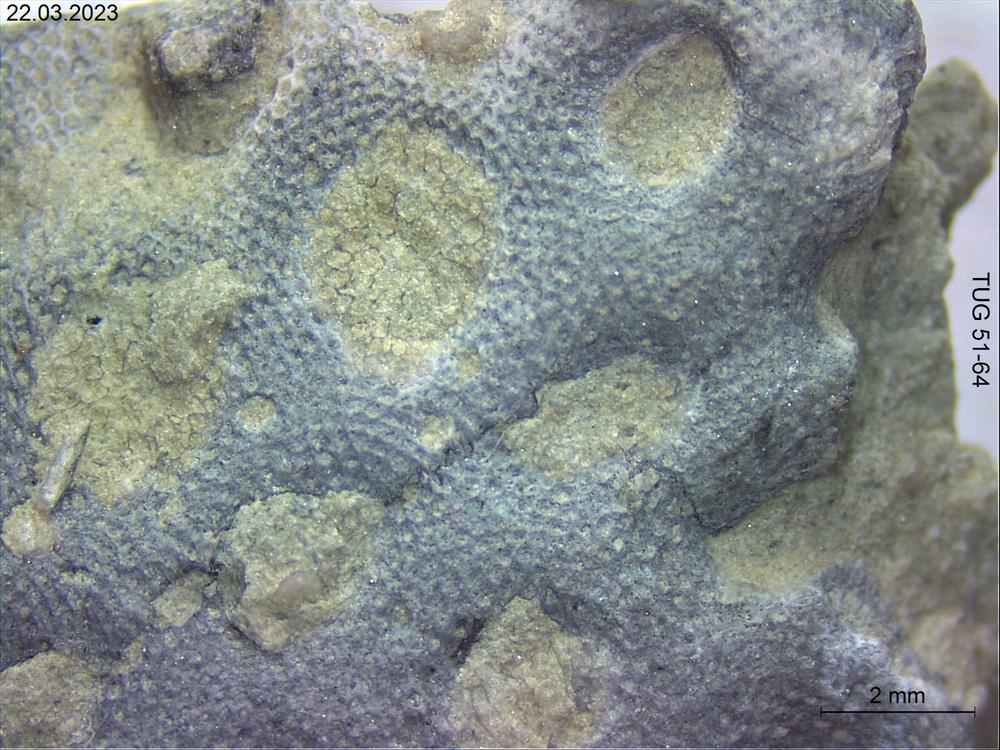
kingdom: Animalia
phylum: Bryozoa
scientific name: Bryozoa
